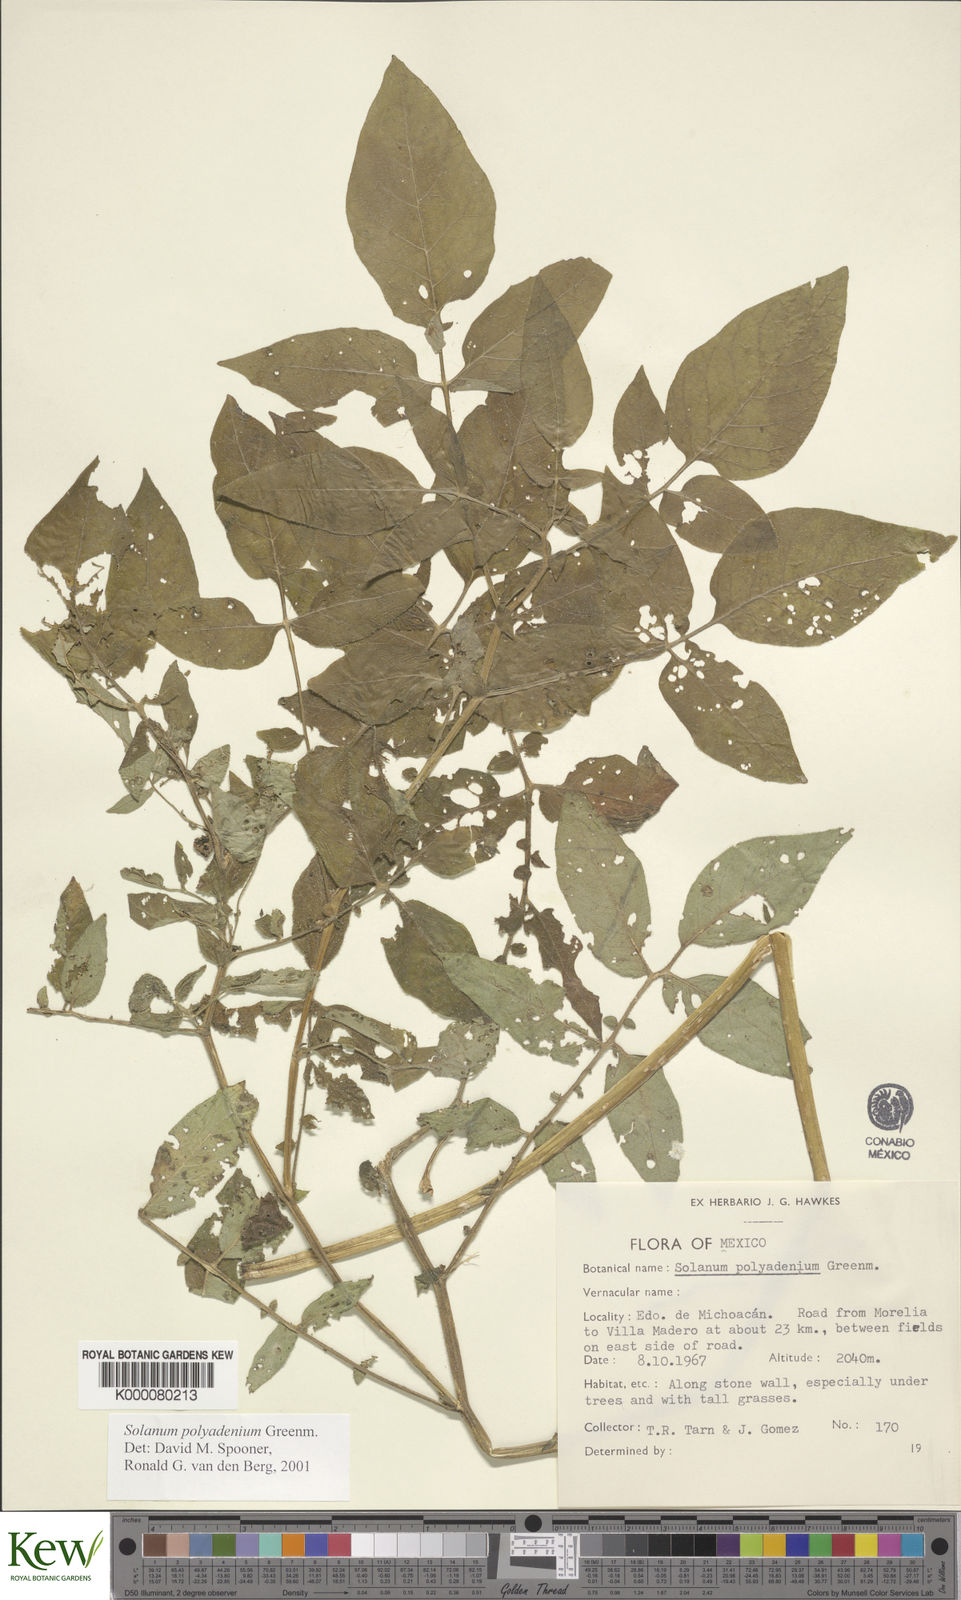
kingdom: Plantae
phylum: Tracheophyta
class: Magnoliopsida
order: Solanales
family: Solanaceae
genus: Solanum
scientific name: Solanum polyadenium
